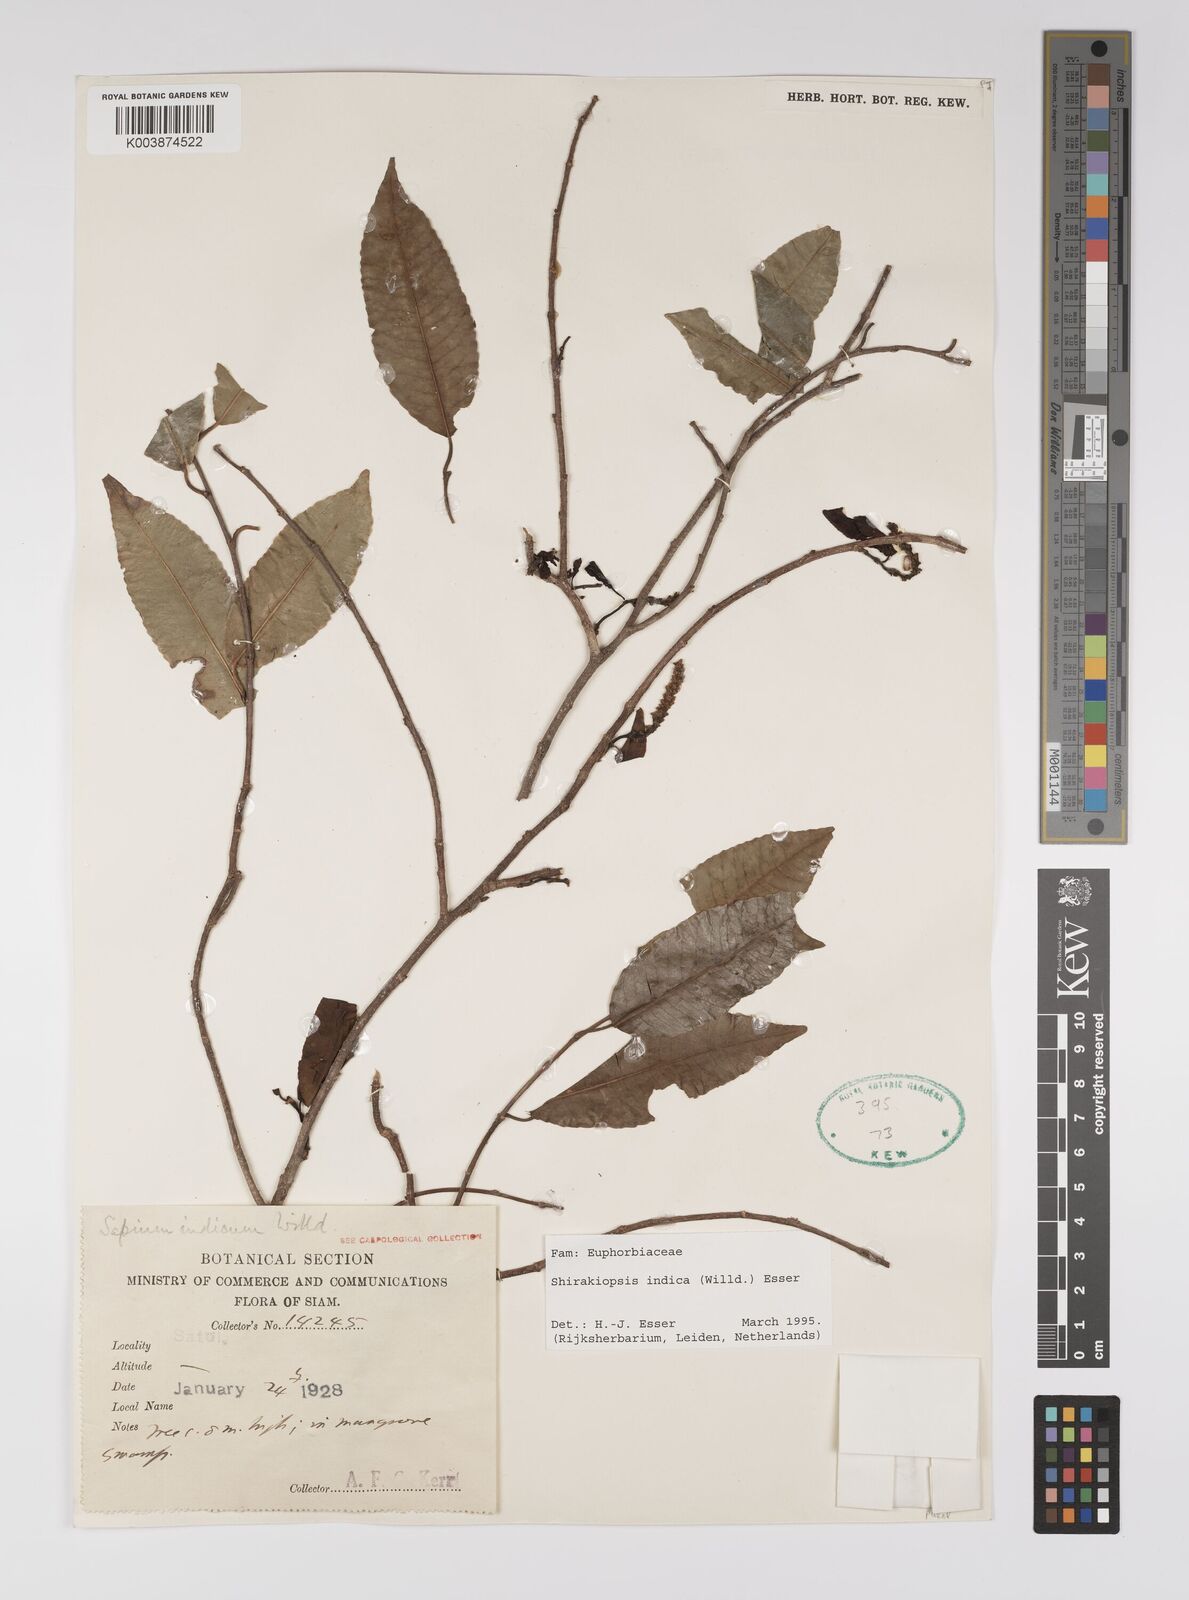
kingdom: Plantae
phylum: Tracheophyta
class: Magnoliopsida
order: Malpighiales
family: Euphorbiaceae
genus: Shirakiopsis
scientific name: Shirakiopsis indica
